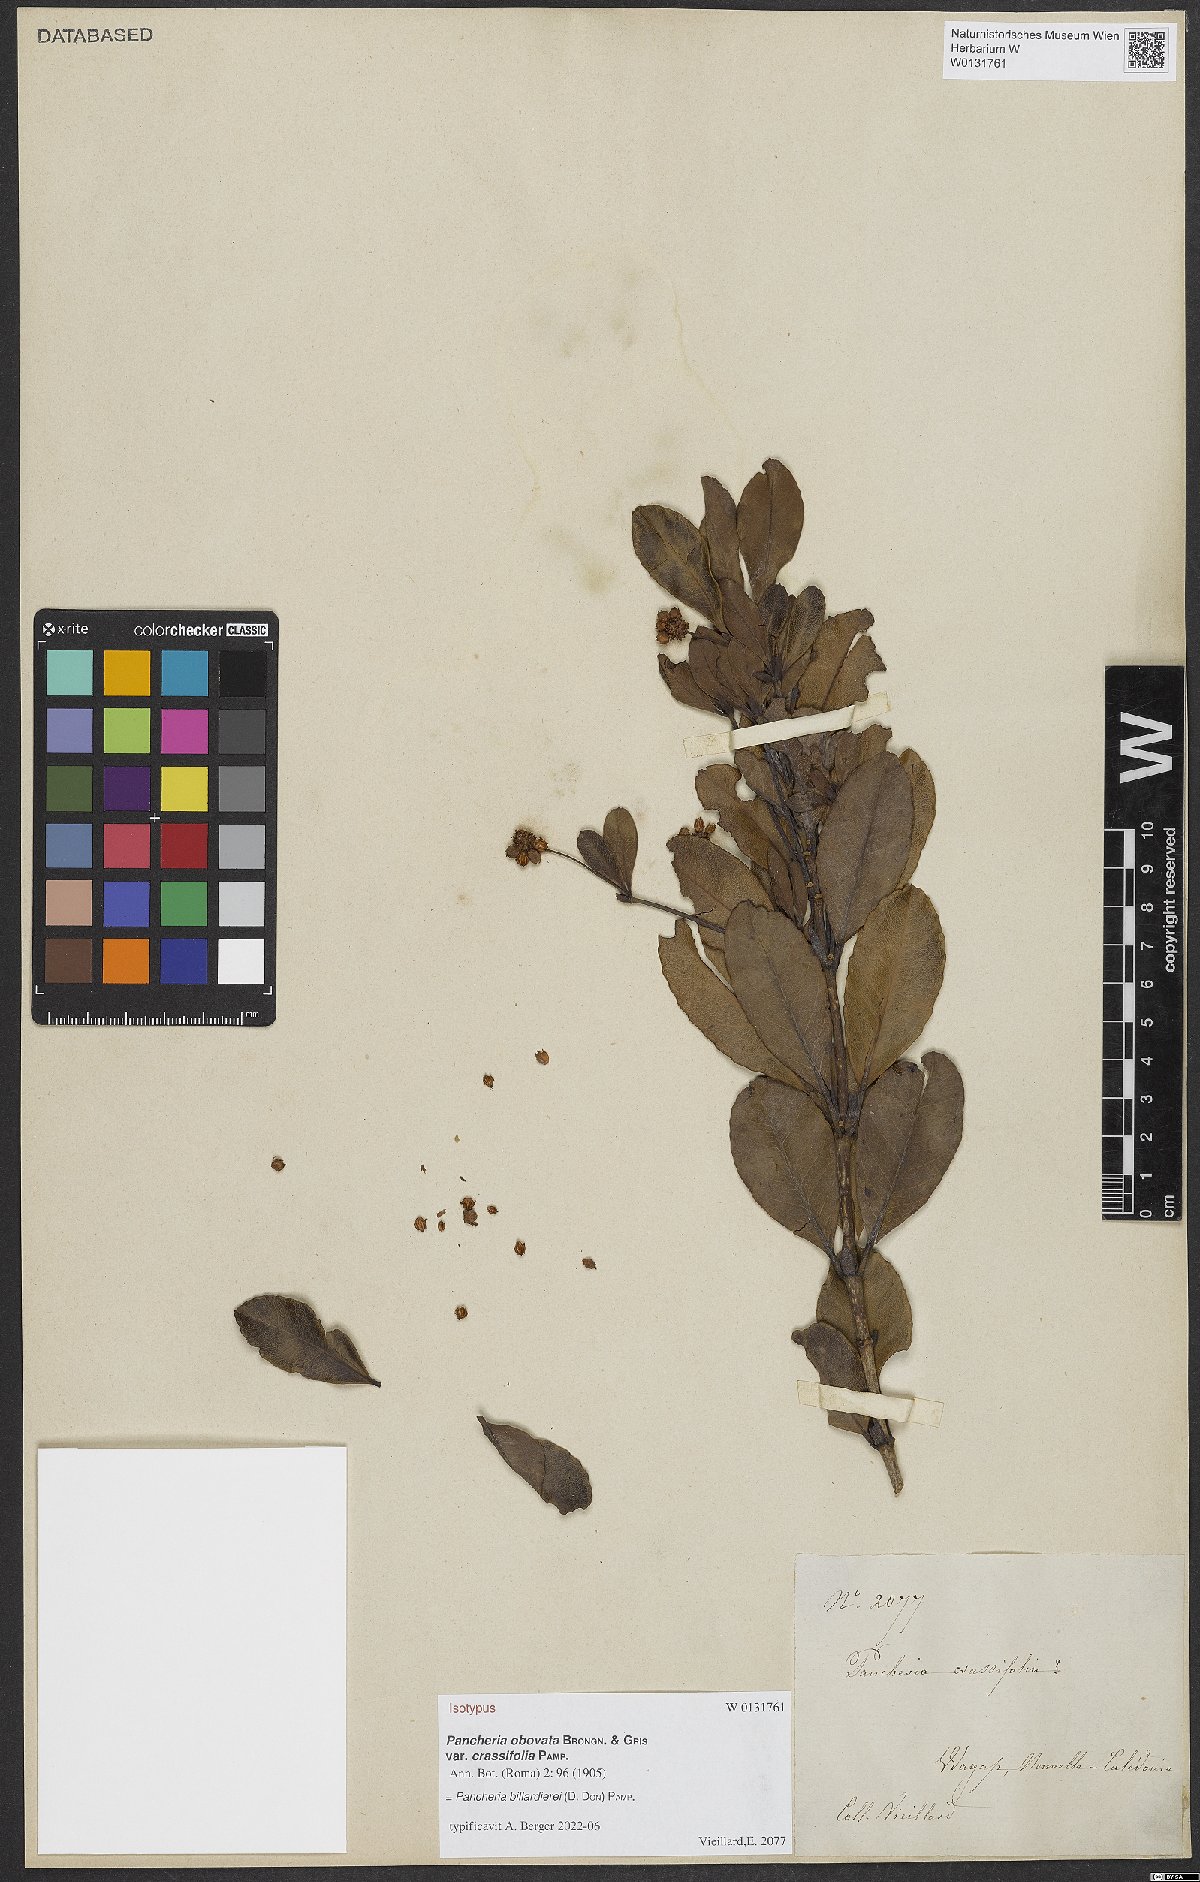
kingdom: Plantae
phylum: Tracheophyta
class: Magnoliopsida
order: Oxalidales
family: Cunoniaceae
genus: Pancheria
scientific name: Pancheria billardierei
